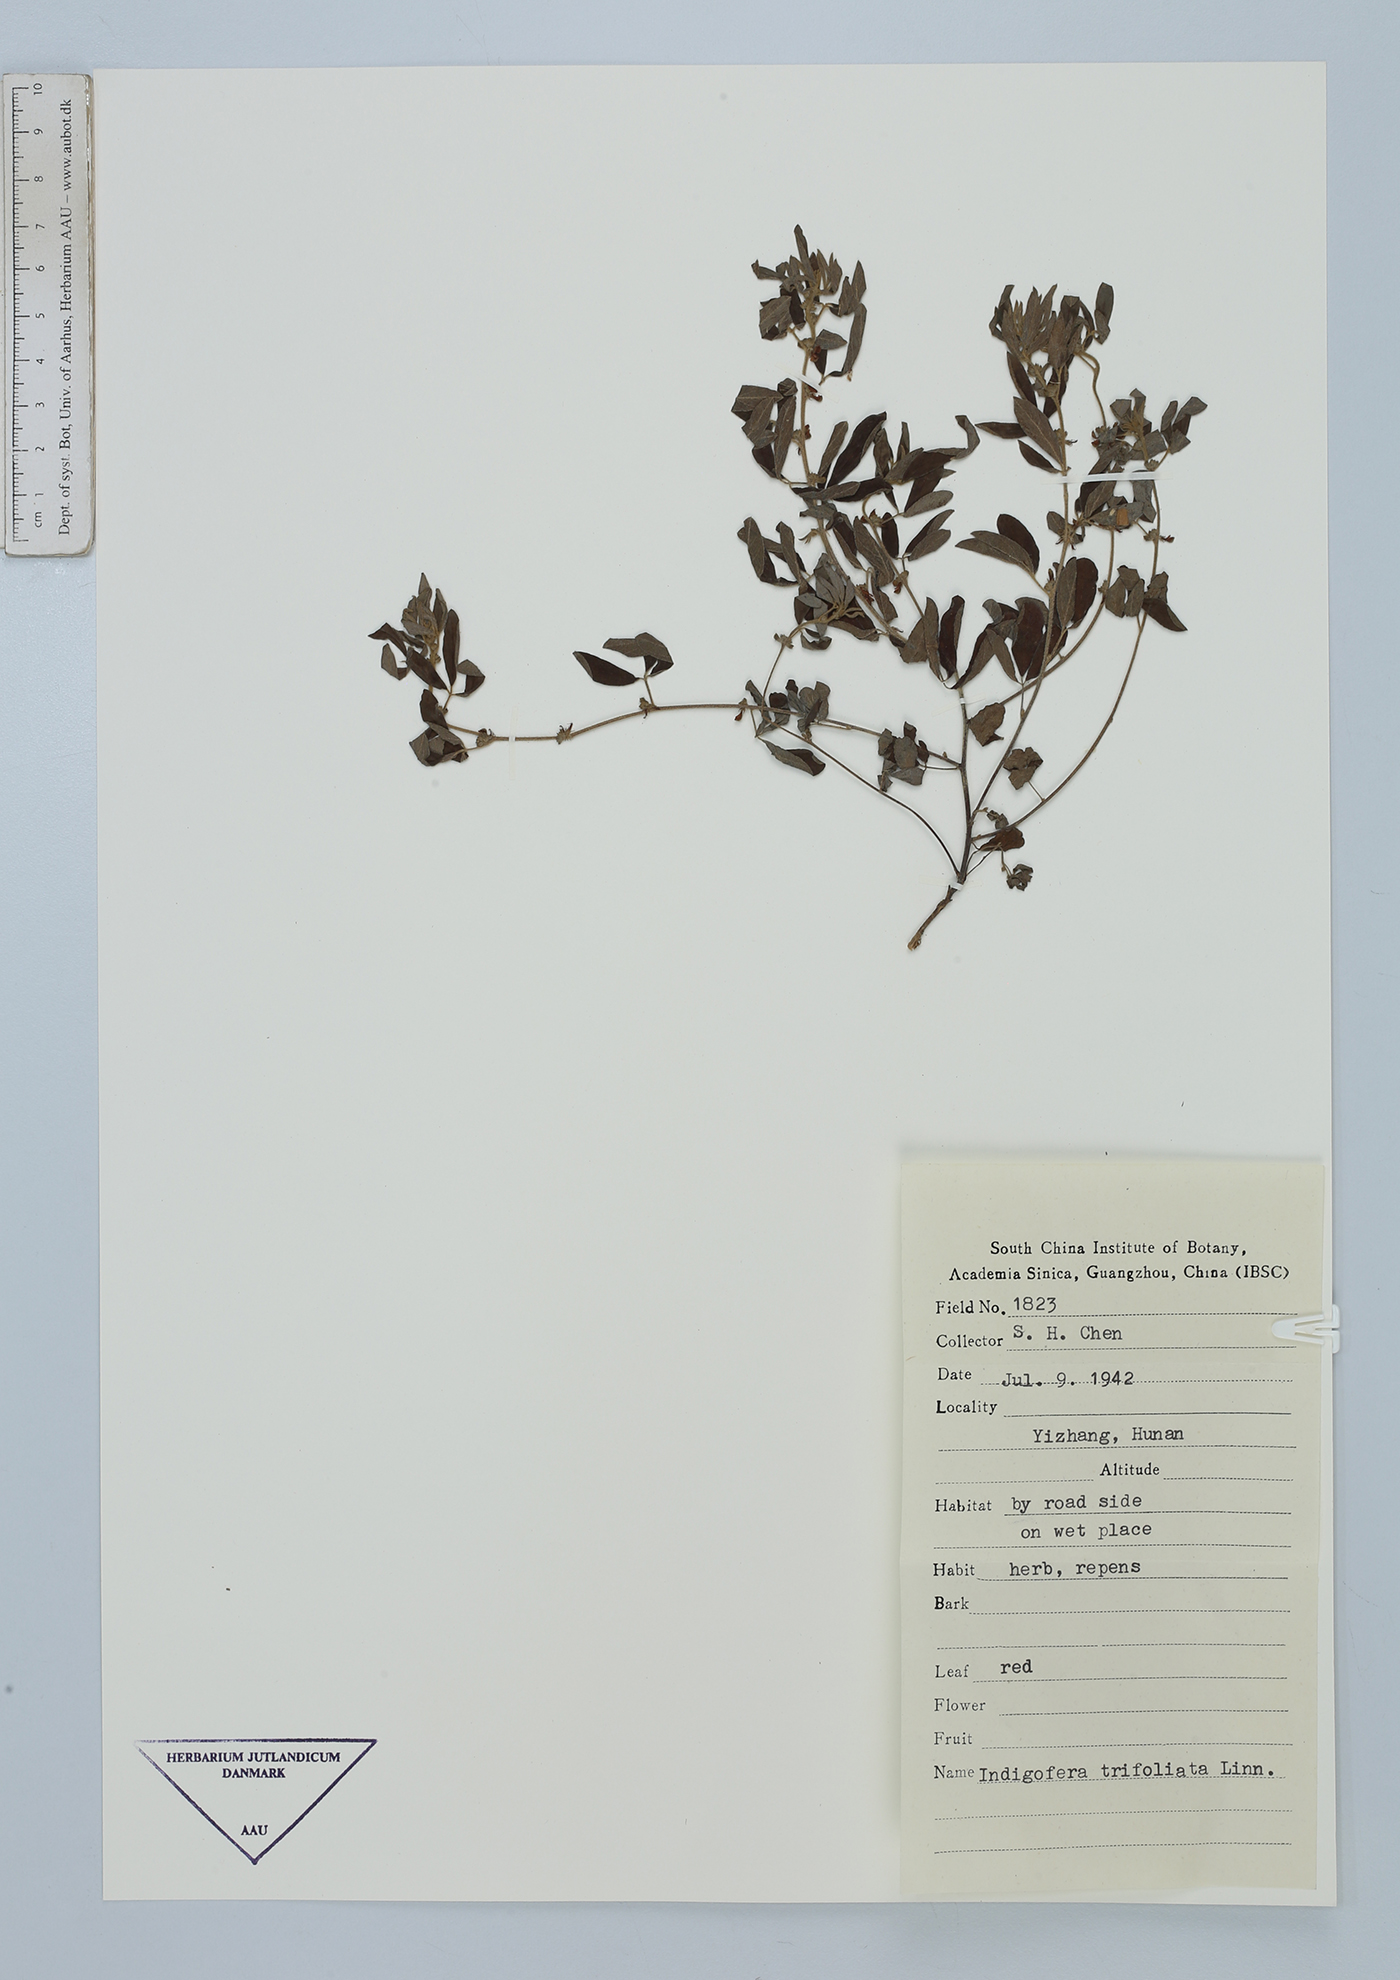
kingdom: Plantae
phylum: Tracheophyta
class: Magnoliopsida
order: Fabales
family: Fabaceae
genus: Indigofera
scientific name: Indigofera trifoliata
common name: Threeleaf indigo
